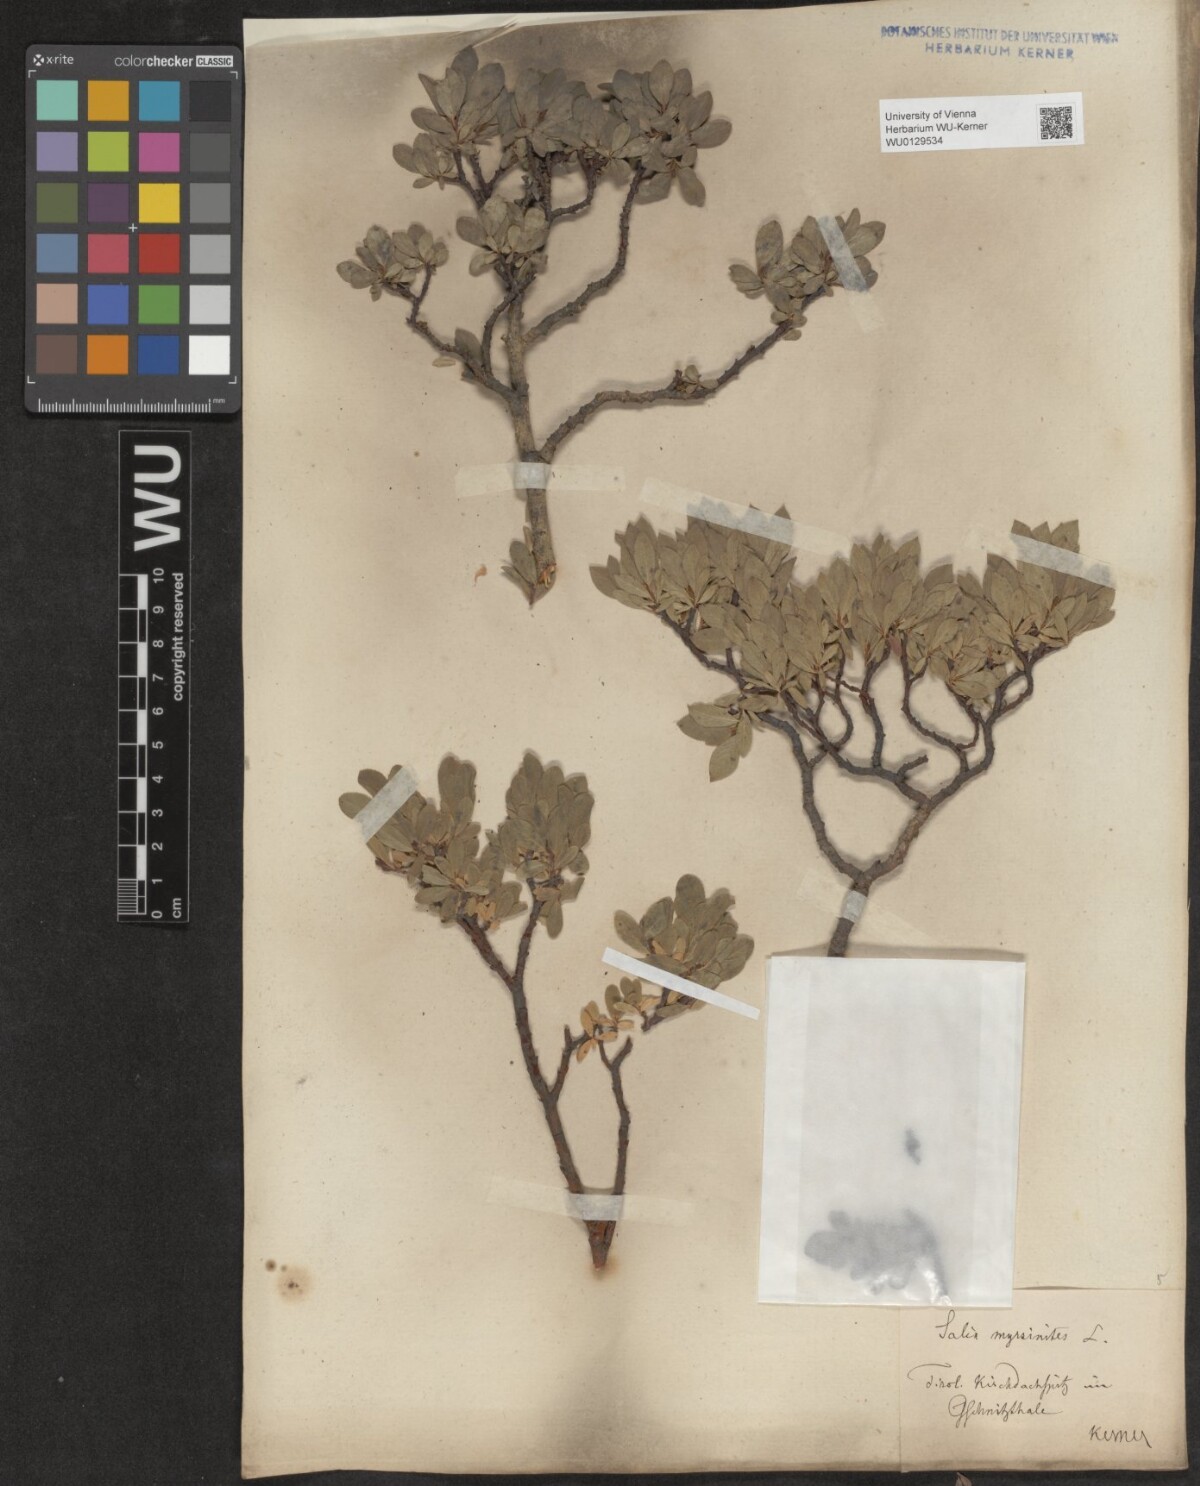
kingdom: Plantae
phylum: Tracheophyta
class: Magnoliopsida
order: Malpighiales
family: Salicaceae
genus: Salix
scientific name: Salix breviserrata
